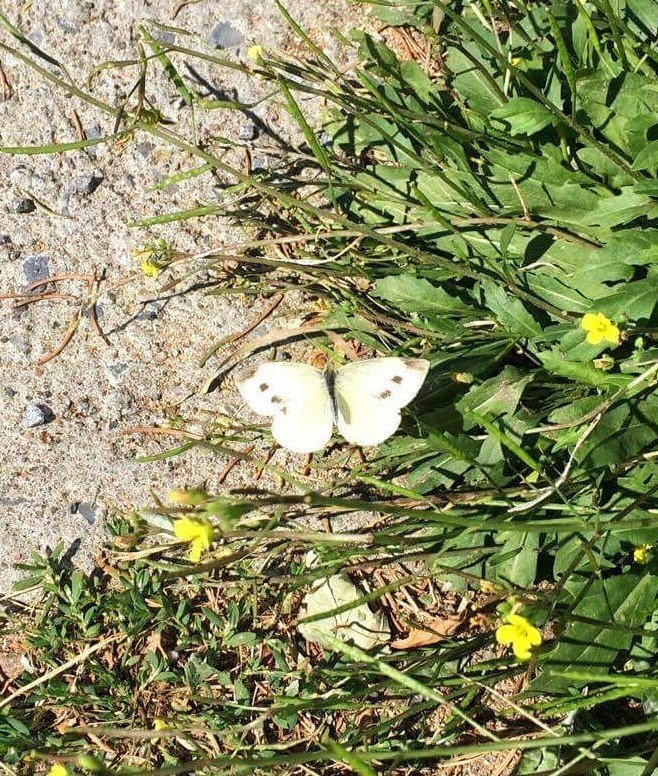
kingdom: Animalia
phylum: Arthropoda
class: Insecta
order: Lepidoptera
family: Pieridae
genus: Pieris
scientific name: Pieris rapae
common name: Cabbage White
